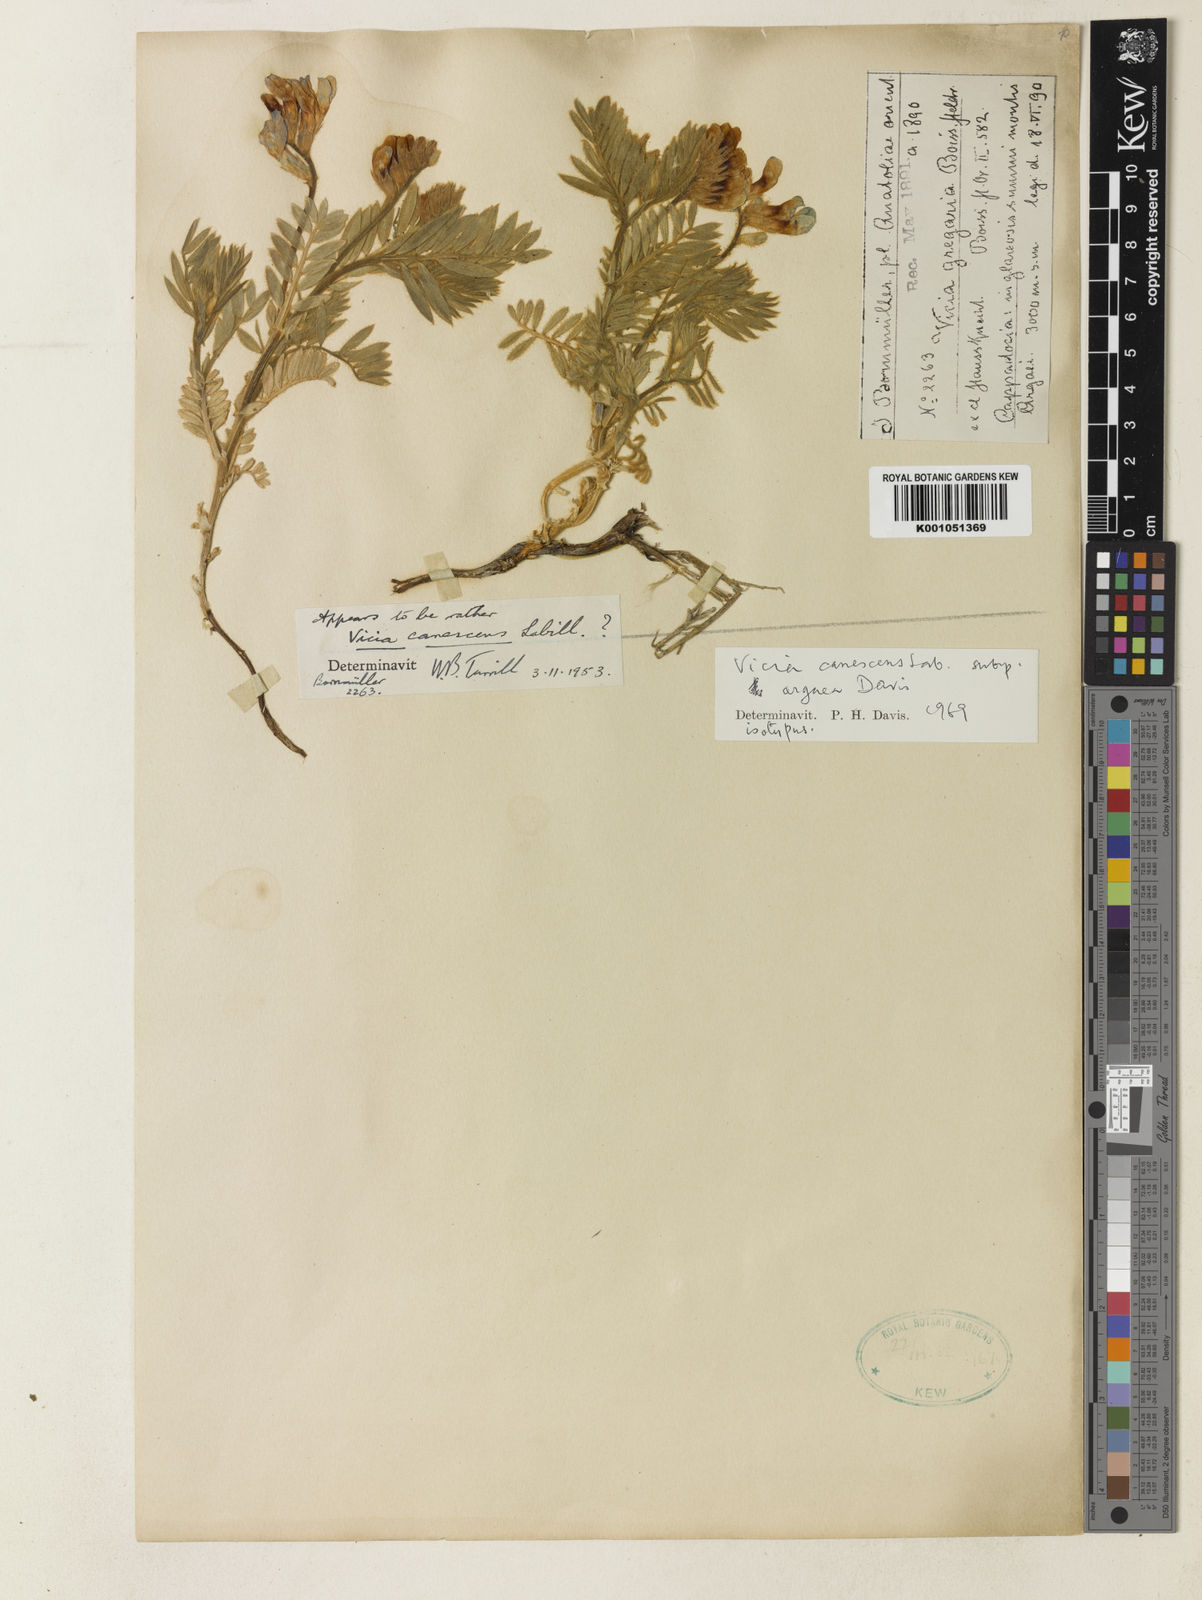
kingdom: Plantae
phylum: Tracheophyta
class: Magnoliopsida
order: Fabales
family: Fabaceae
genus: Vicia
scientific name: Vicia argaea
